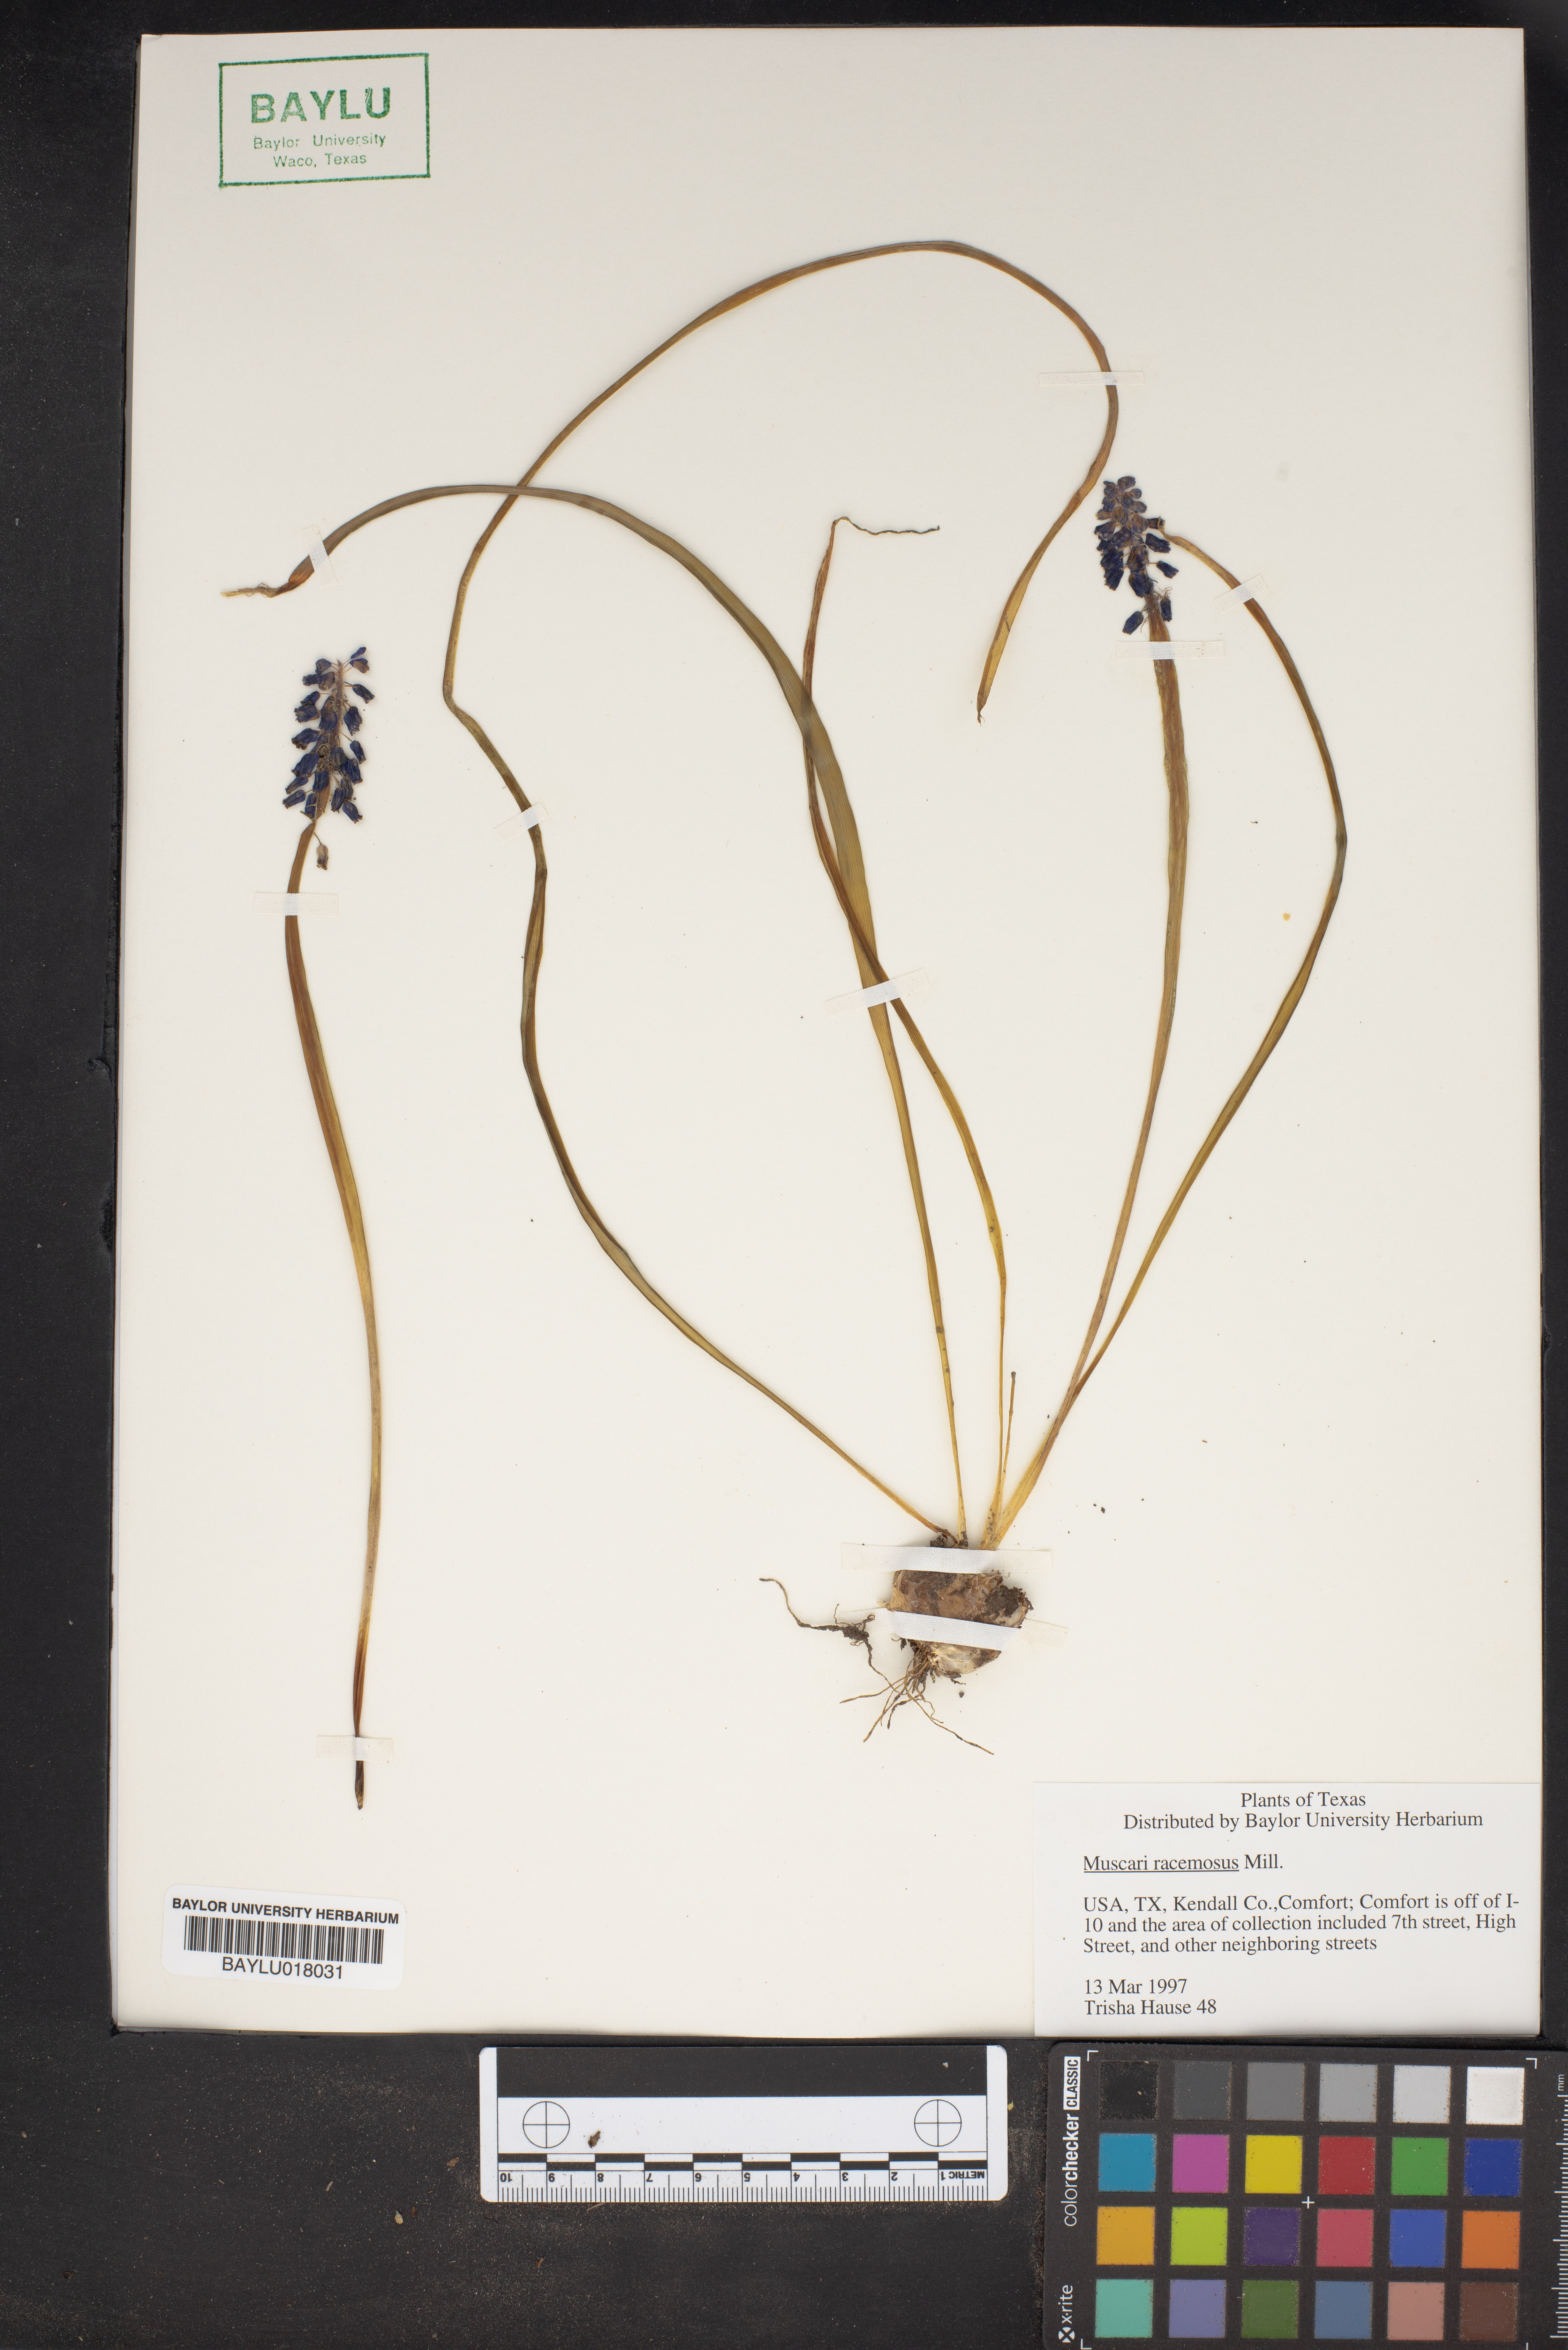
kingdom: Plantae
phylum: Tracheophyta
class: Liliopsida
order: Asparagales
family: Asparagaceae
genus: Muscarimia
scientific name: Muscarimia muscari
